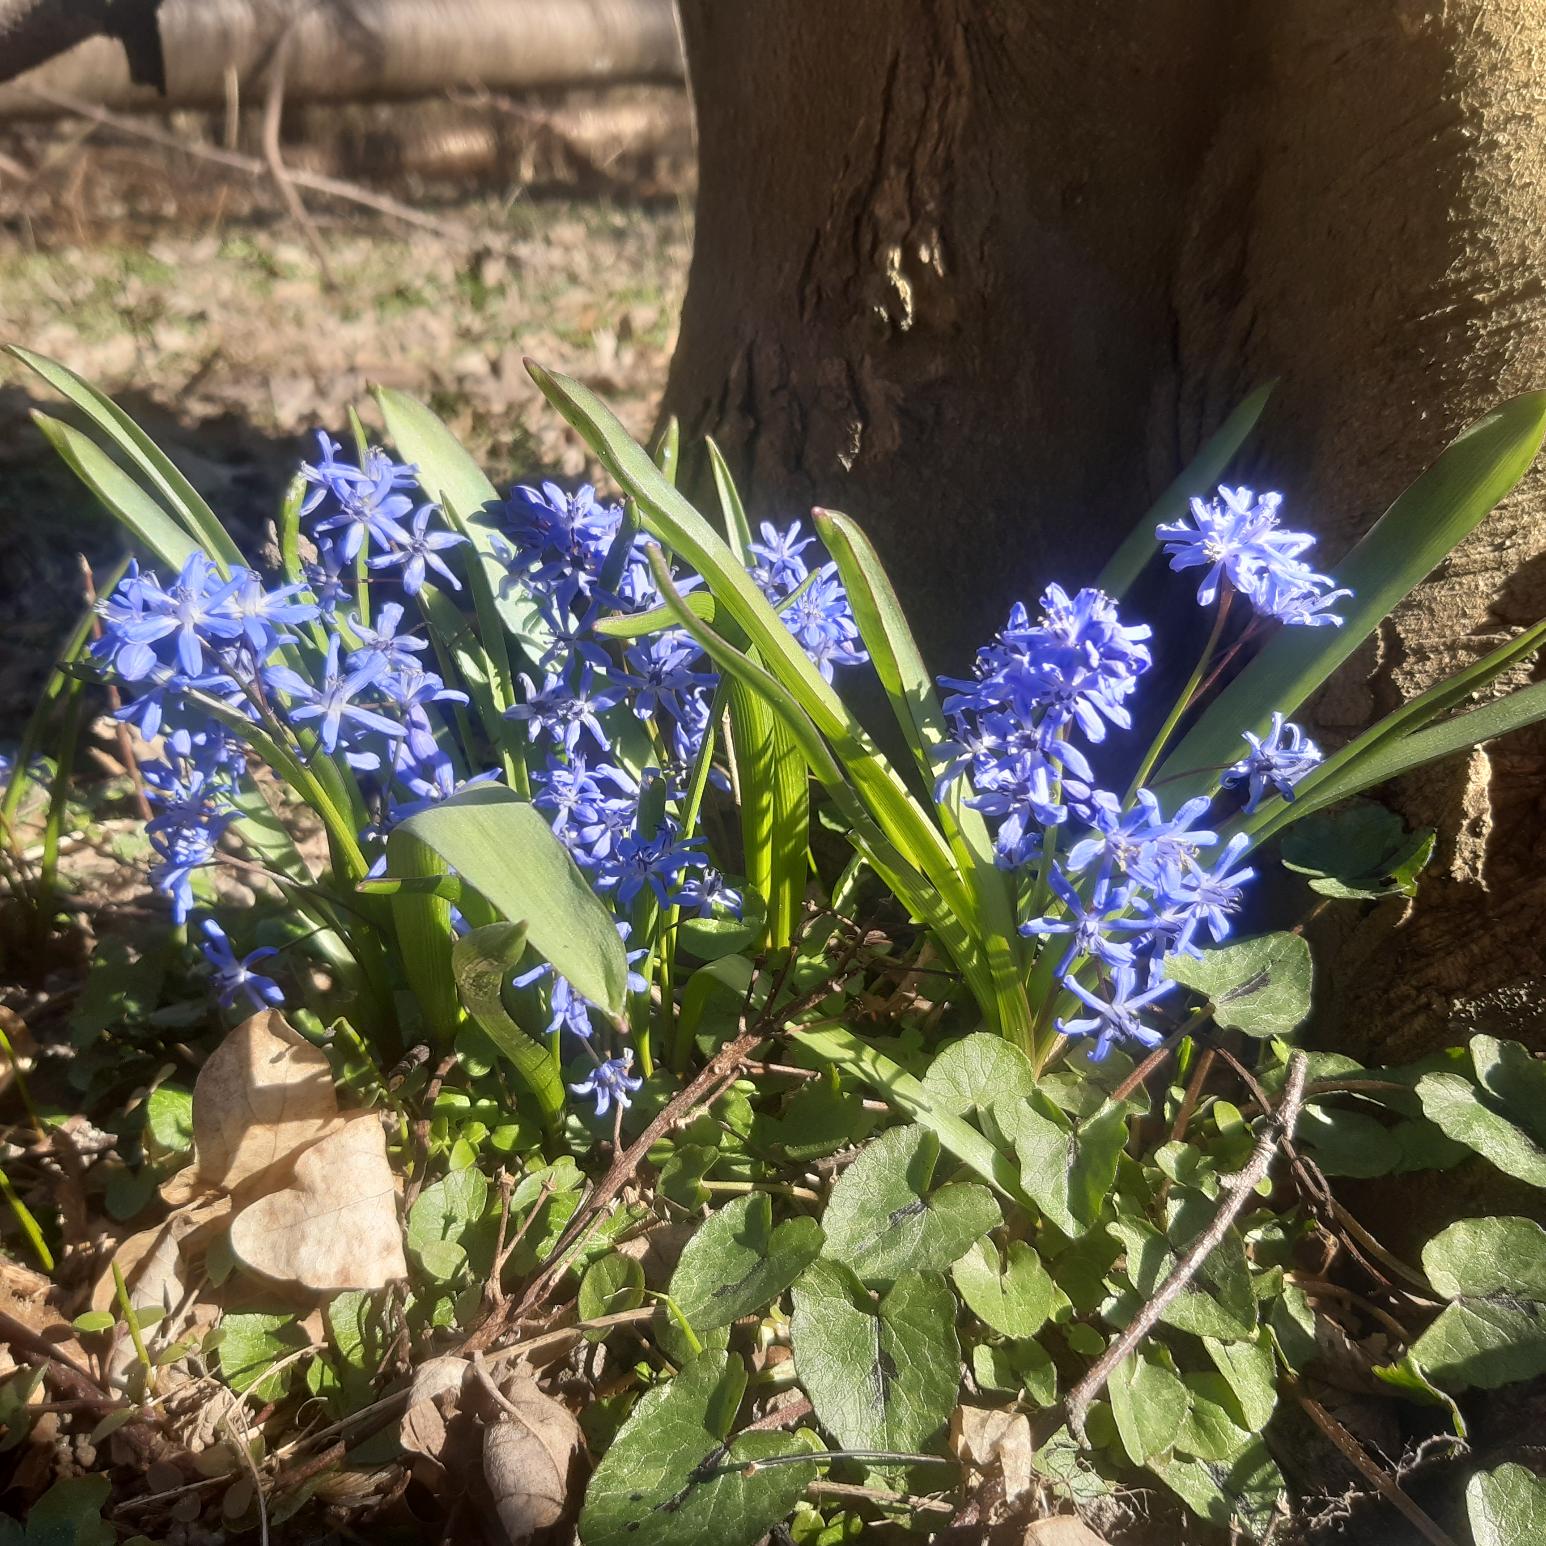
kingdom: Plantae
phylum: Tracheophyta
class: Liliopsida
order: Asparagales
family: Asparagaceae
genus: Scilla
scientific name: Scilla bifolia
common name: Tobladet skilla
